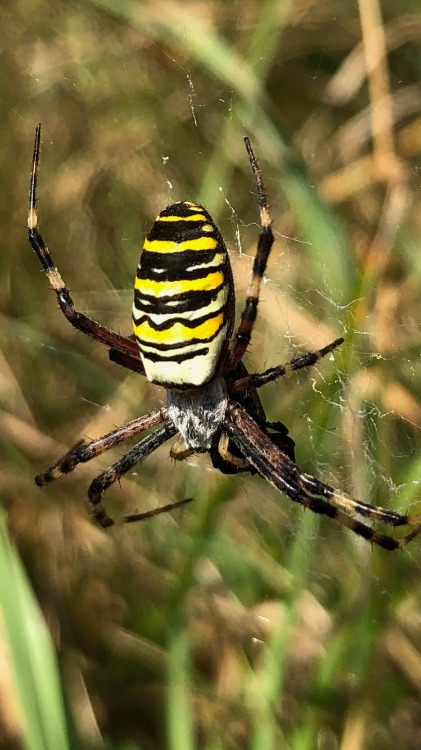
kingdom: Animalia
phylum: Arthropoda
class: Arachnida
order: Araneae
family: Araneidae
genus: Argiope
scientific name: Argiope bruennichi
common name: Hvepseedderkop
